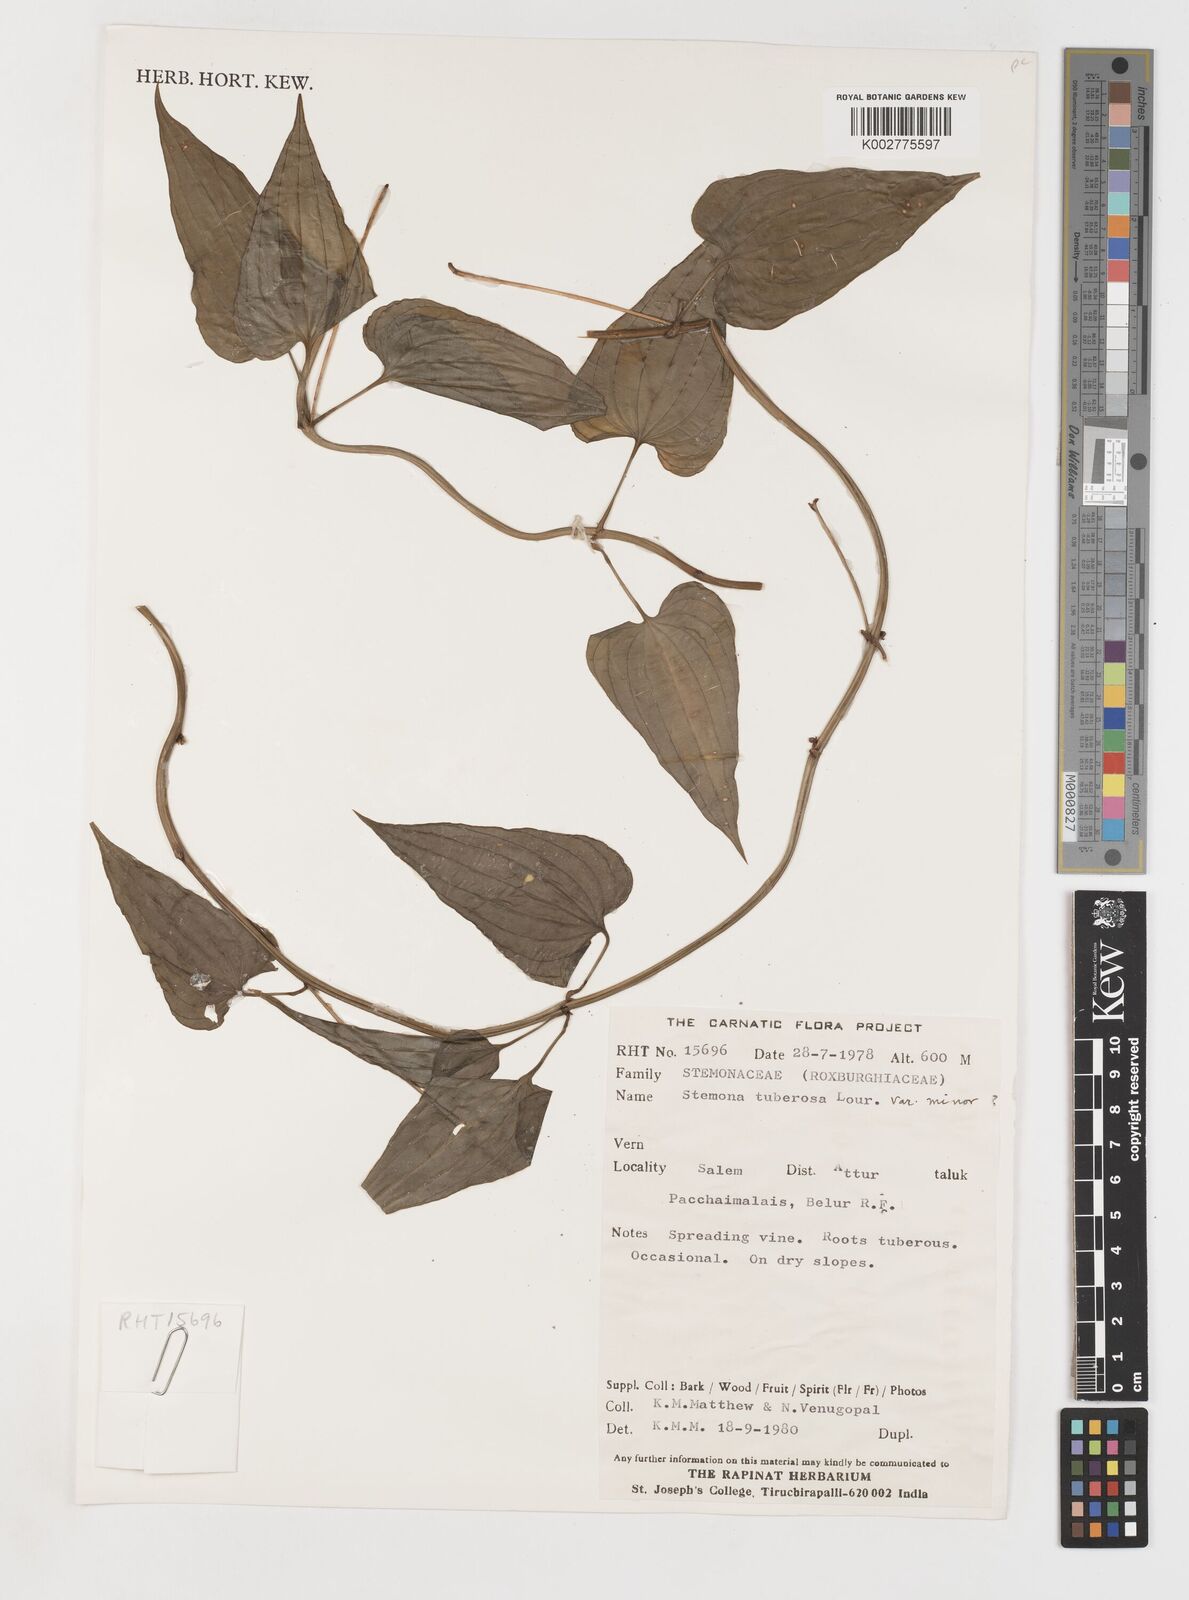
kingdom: Plantae
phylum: Tracheophyta
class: Liliopsida
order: Pandanales
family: Stemonaceae
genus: Stemona
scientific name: Stemona tuberosa
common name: Stemona
